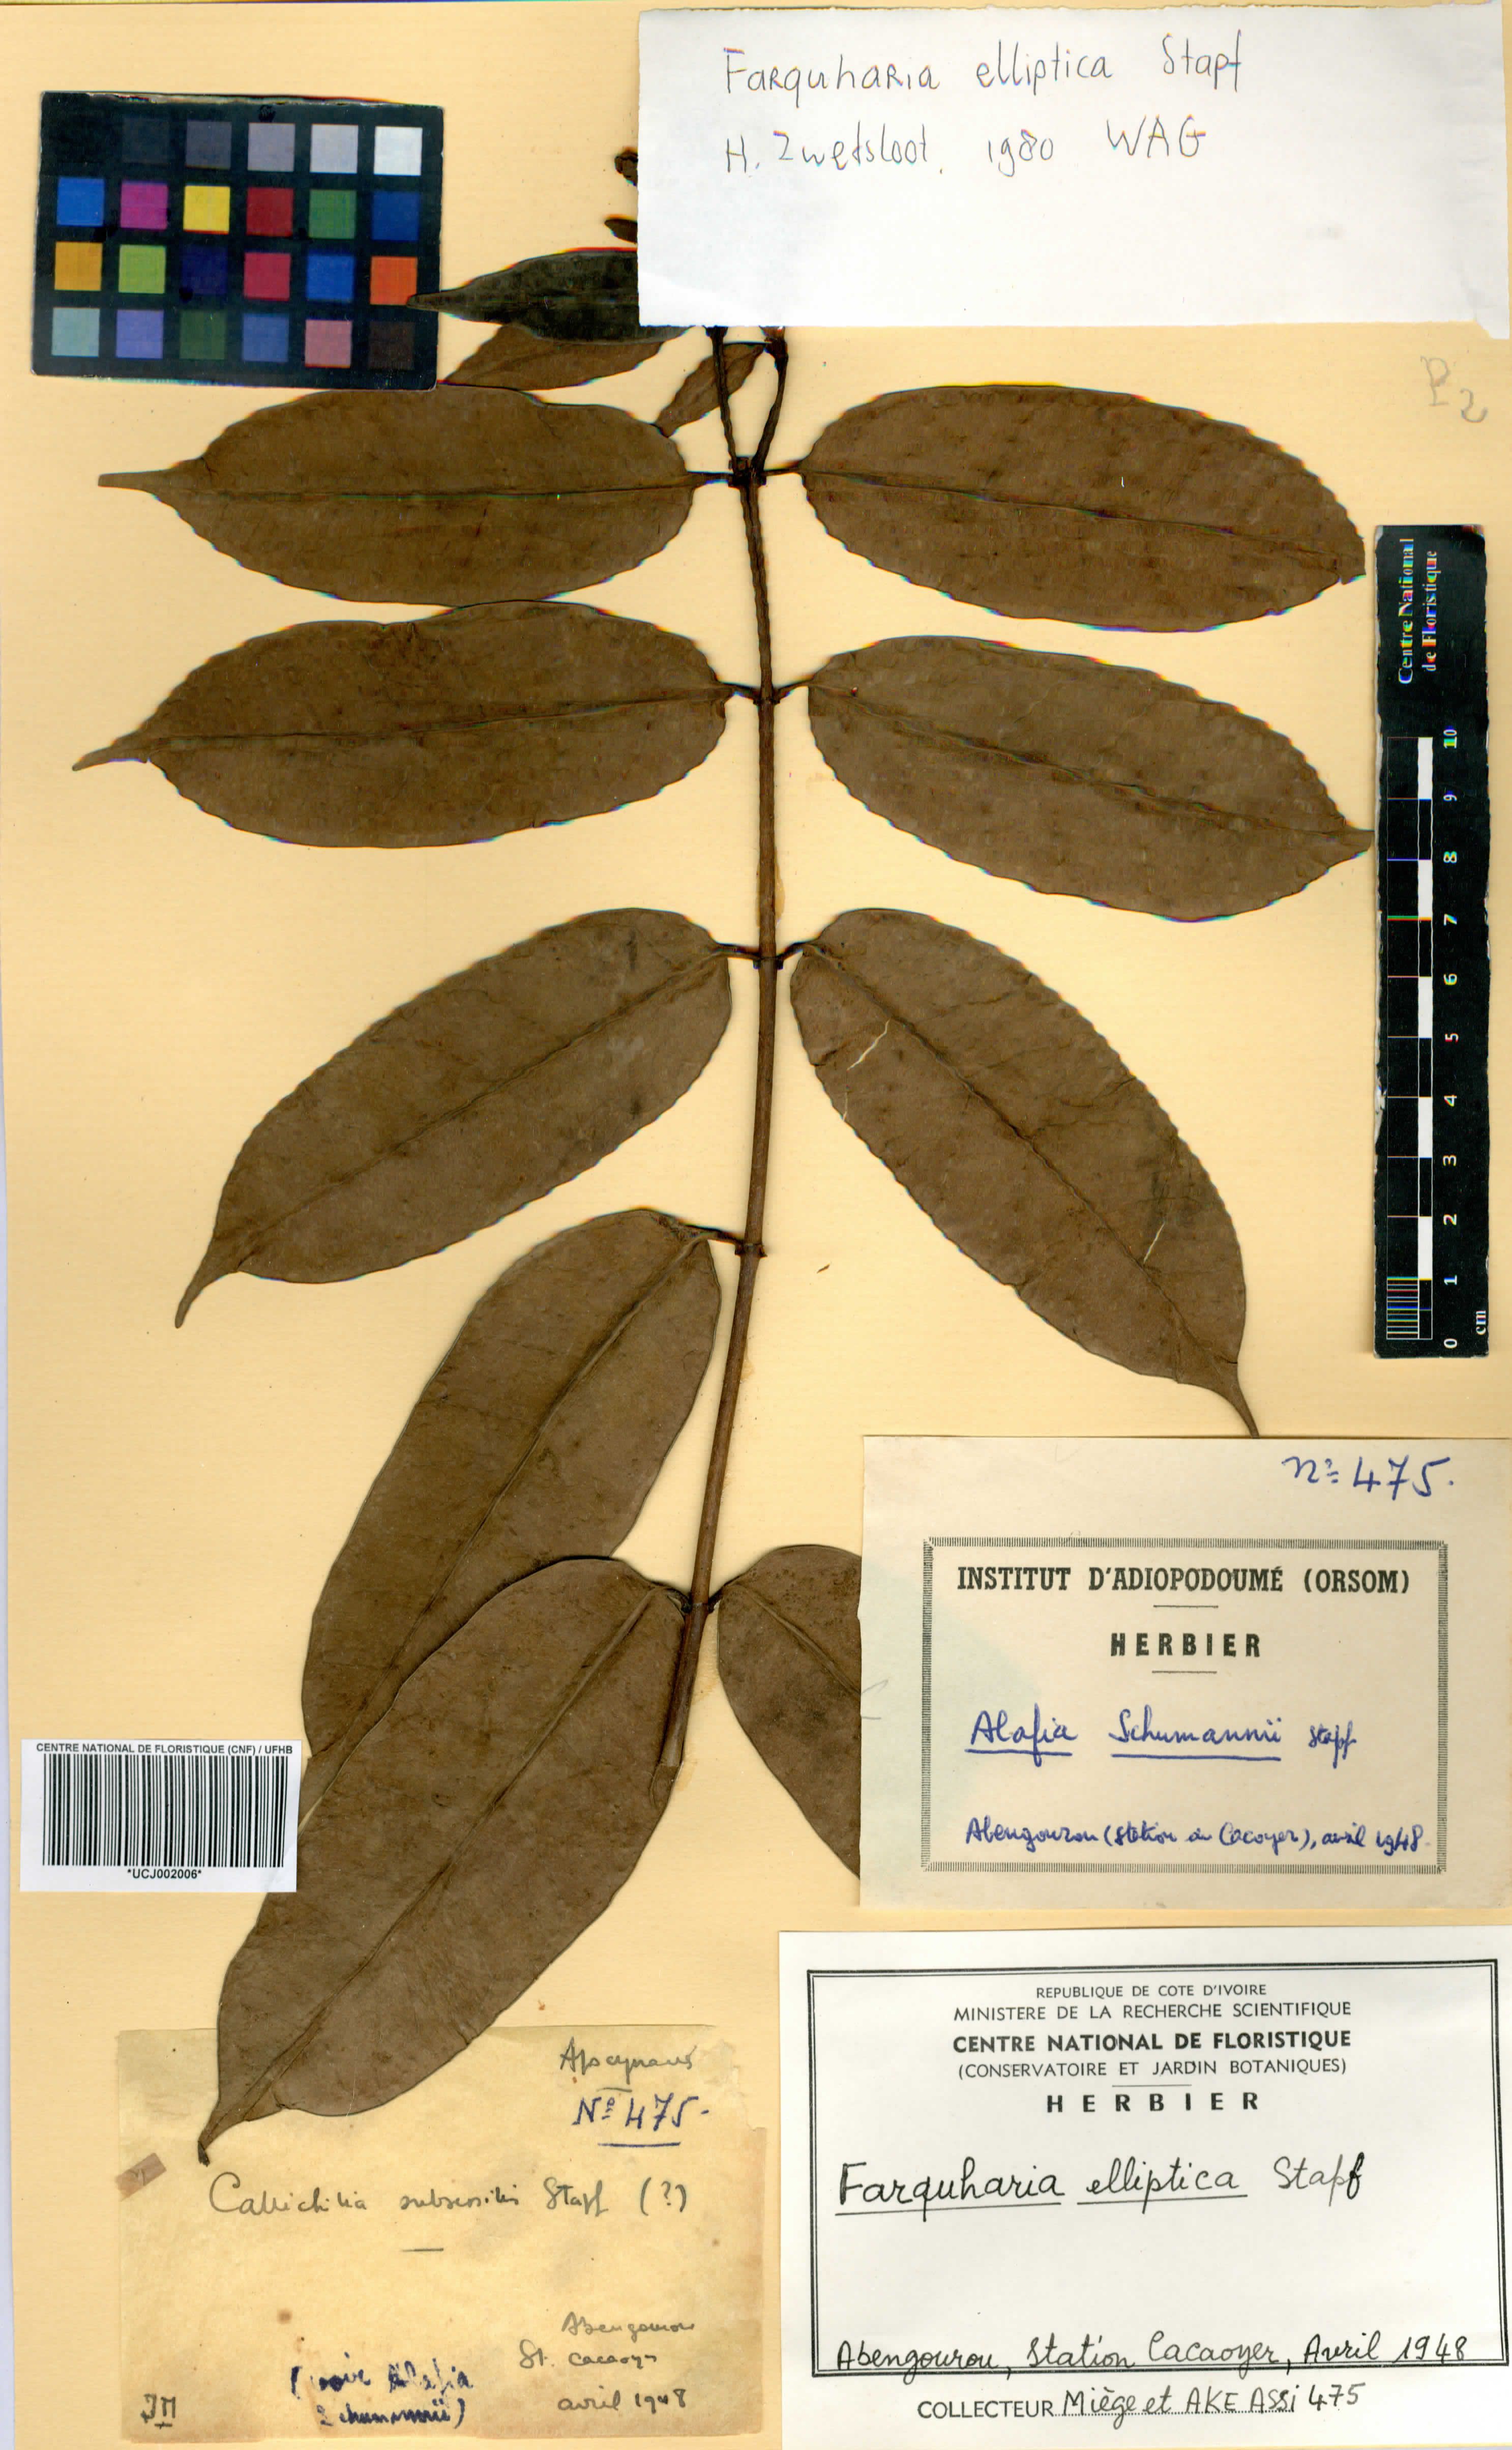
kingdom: Plantae
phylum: Tracheophyta
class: Magnoliopsida
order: Gentianales
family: Apocynaceae
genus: Farquharia
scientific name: Farquharia elliptica
